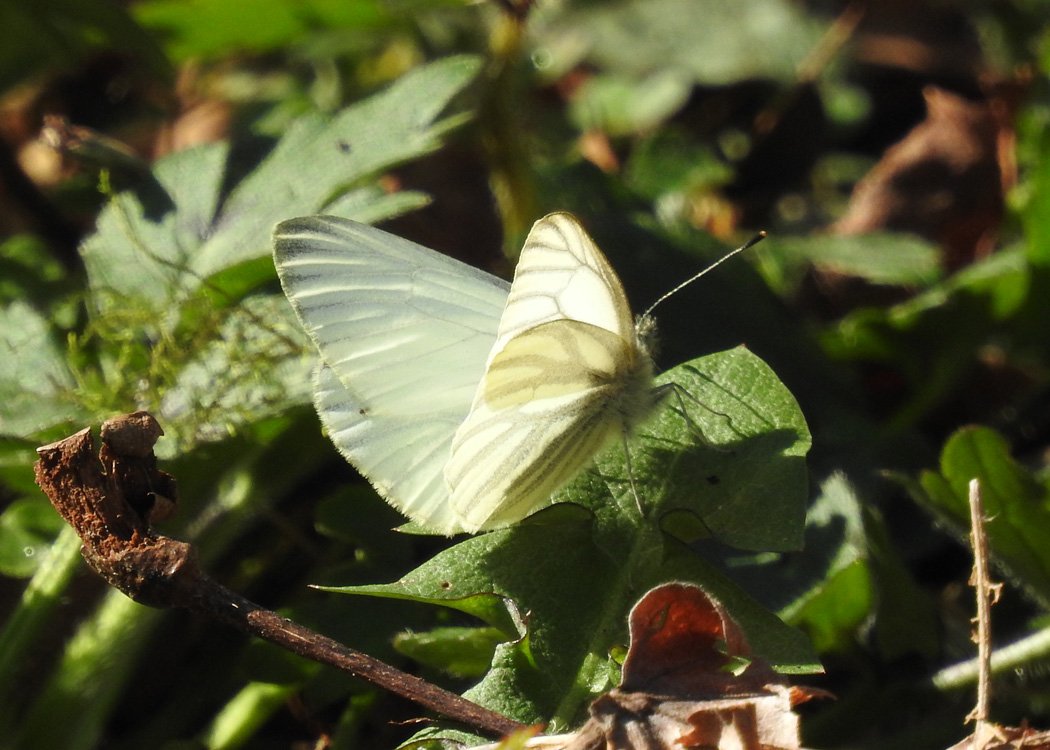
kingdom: Animalia
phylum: Arthropoda
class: Insecta
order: Lepidoptera
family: Pieridae
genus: Pieris
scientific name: Pieris marginalis
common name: Margined White
